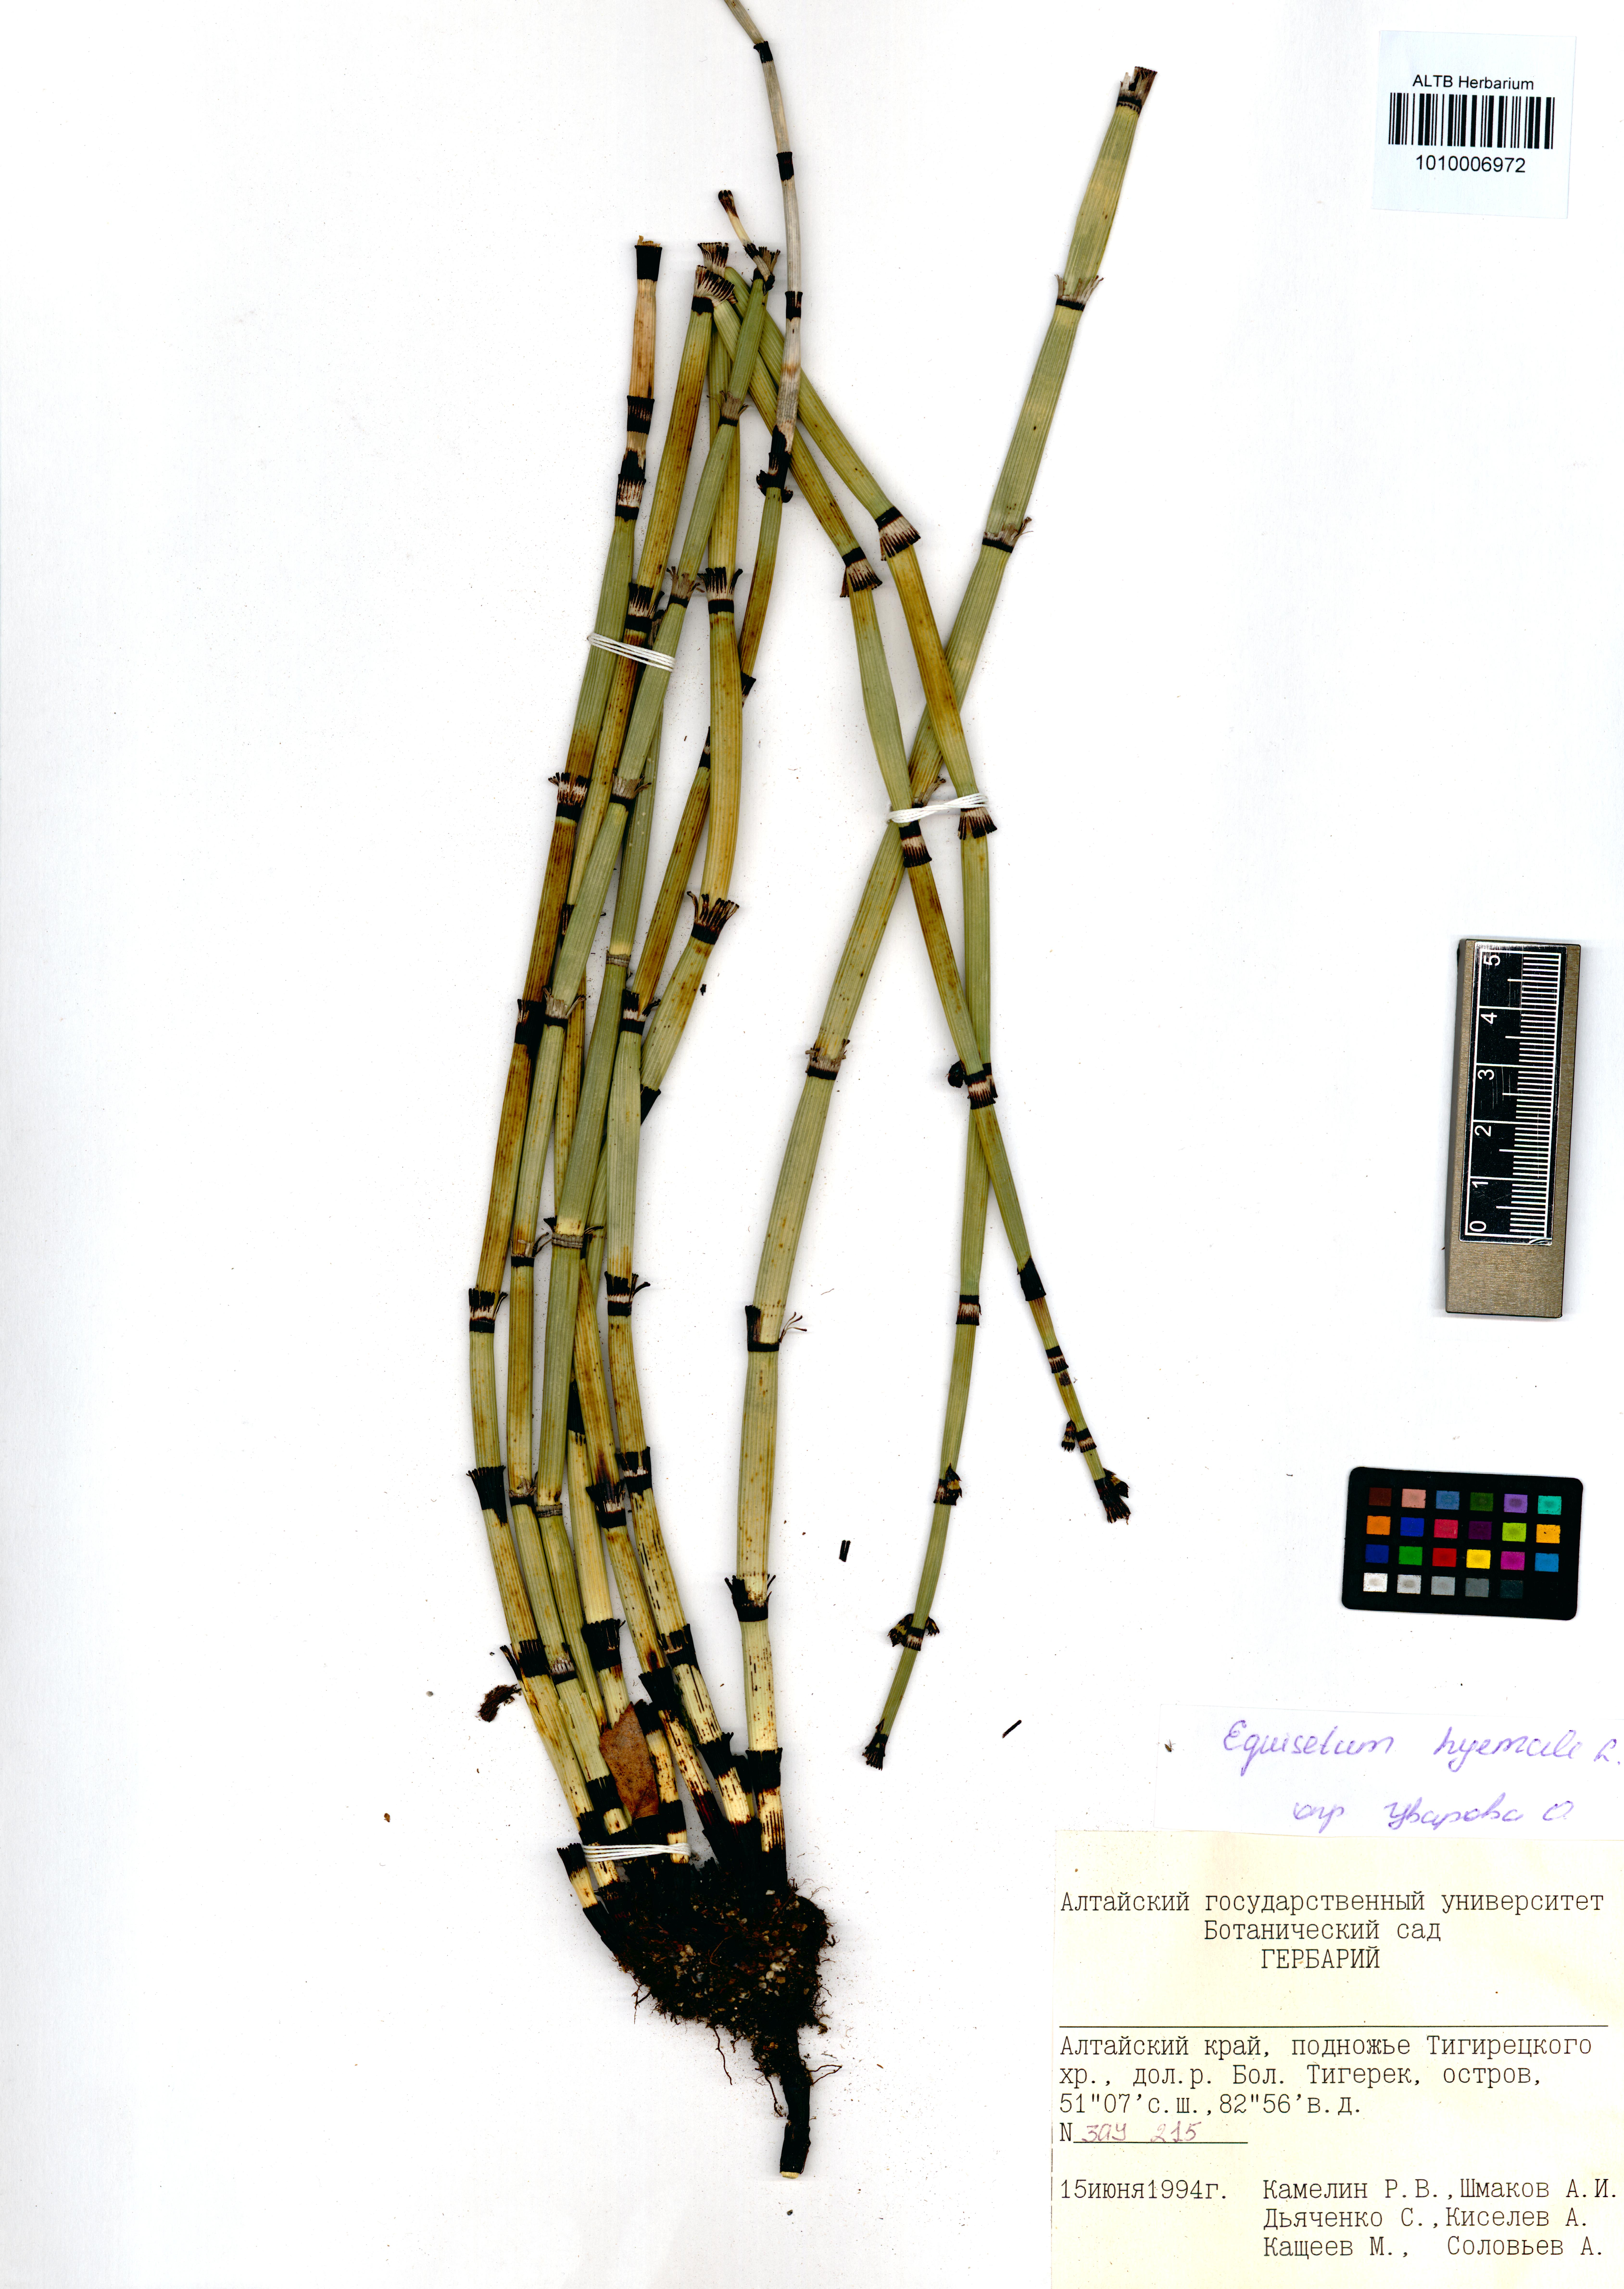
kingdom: Plantae
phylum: Tracheophyta
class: Polypodiopsida
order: Equisetales
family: Equisetaceae
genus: Equisetum
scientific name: Equisetum hyemale
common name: Rough horsetail
